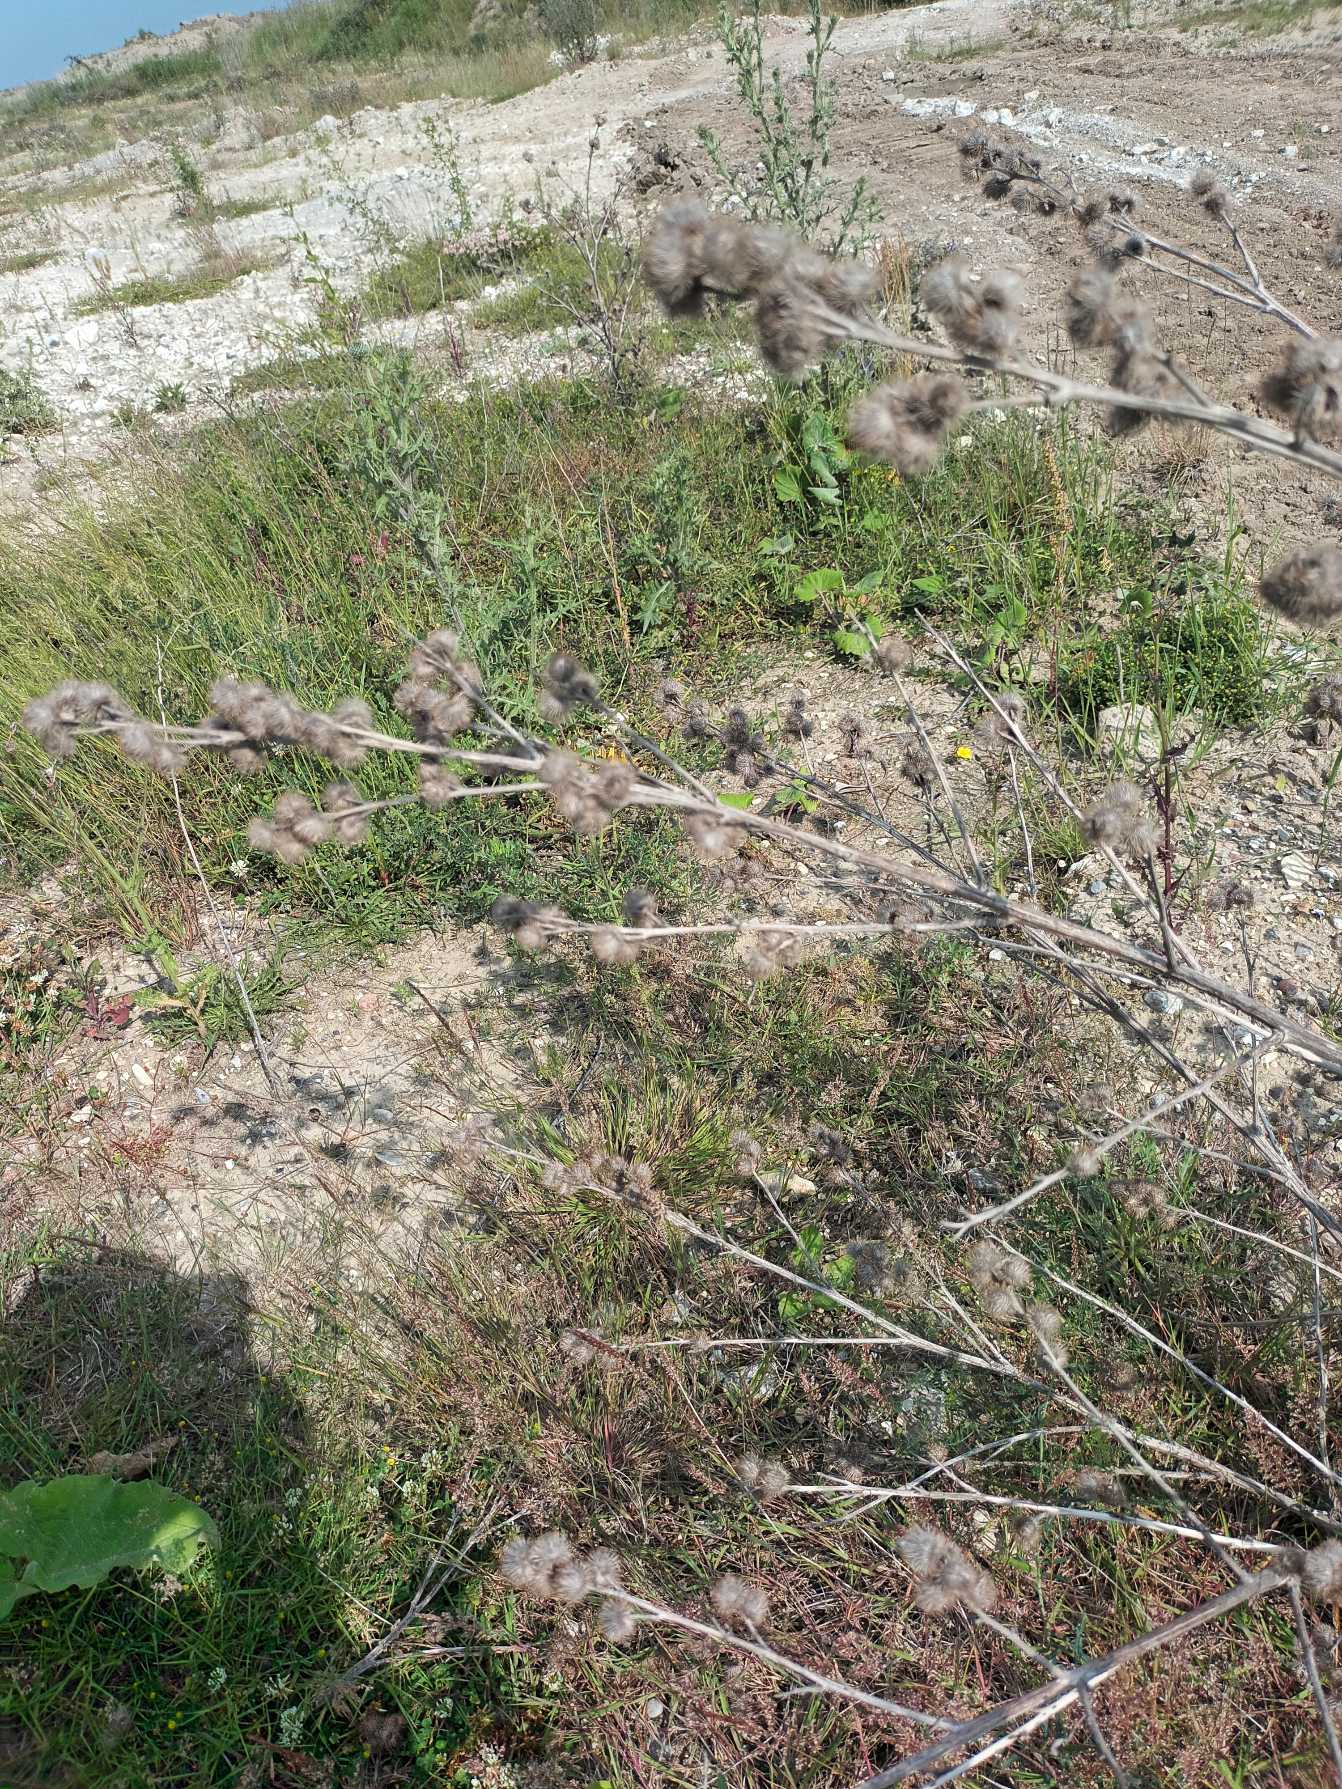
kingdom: Plantae
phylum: Tracheophyta
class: Magnoliopsida
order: Saxifragales
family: Crassulaceae
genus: Sedum
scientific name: Sedum album
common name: Hvid stenurt
